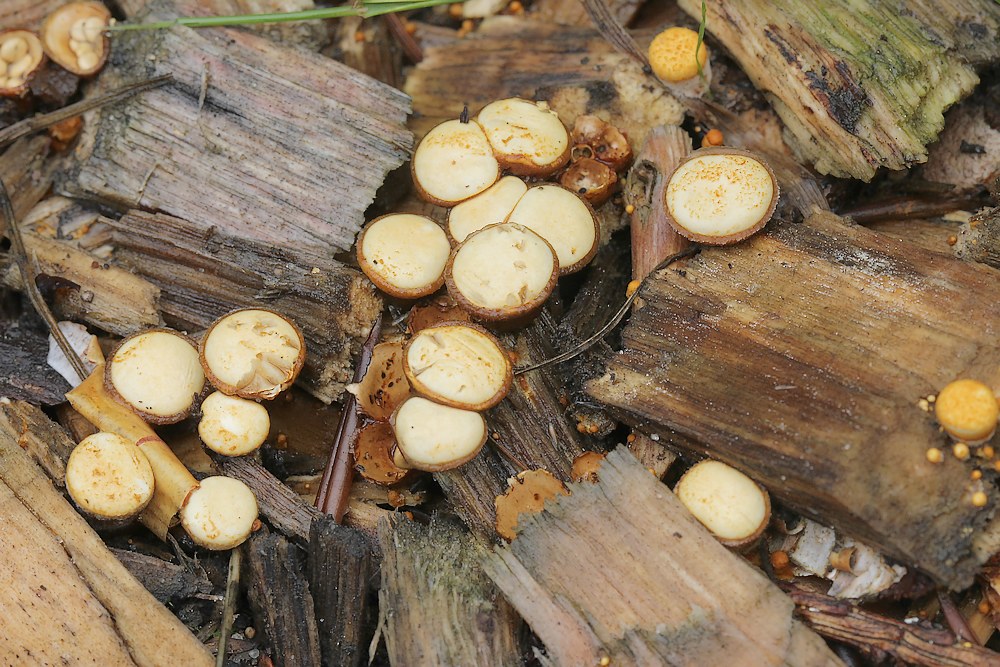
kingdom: Fungi
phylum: Basidiomycota
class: Agaricomycetes
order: Agaricales
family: Nidulariaceae
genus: Crucibulum
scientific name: Crucibulum crucibuliforme
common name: krukkesvamp
